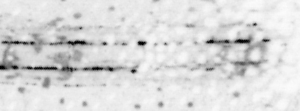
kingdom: Animalia
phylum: Chordata
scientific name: Chordata
